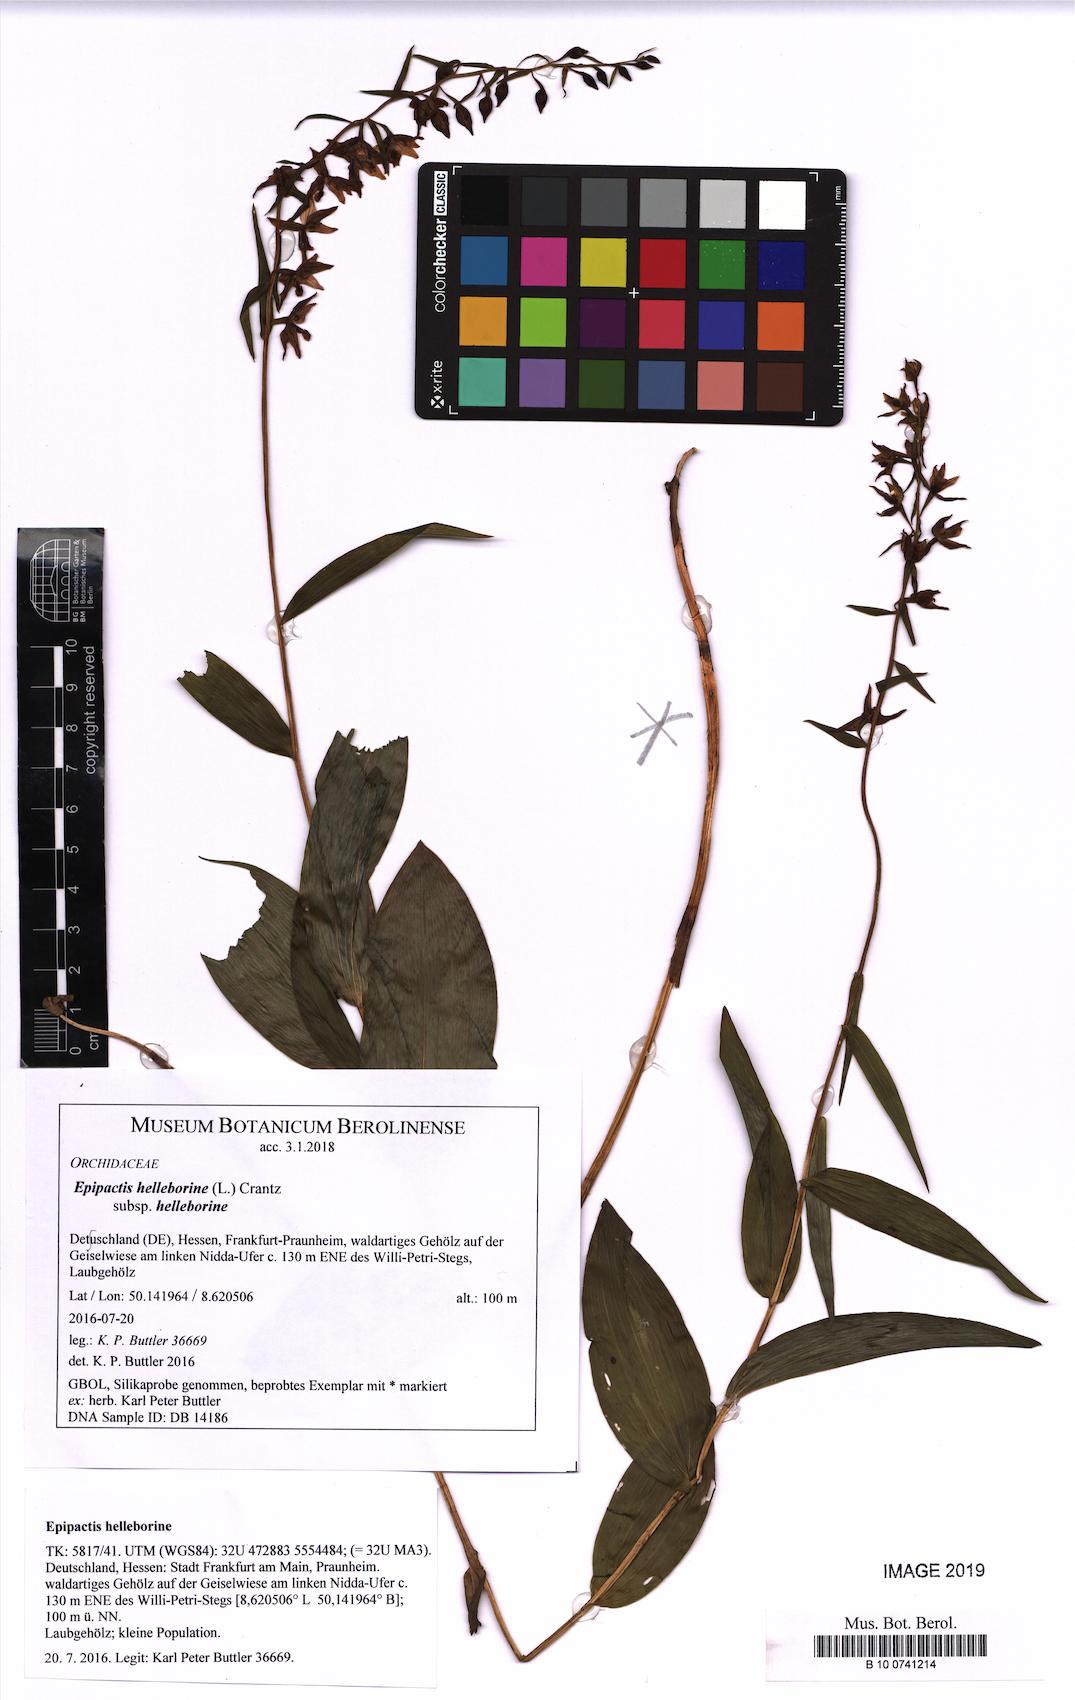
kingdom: Plantae
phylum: Tracheophyta
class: Liliopsida
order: Asparagales
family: Orchidaceae
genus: Epipactis
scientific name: Epipactis helleborine
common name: Broad-leaved helleborine
